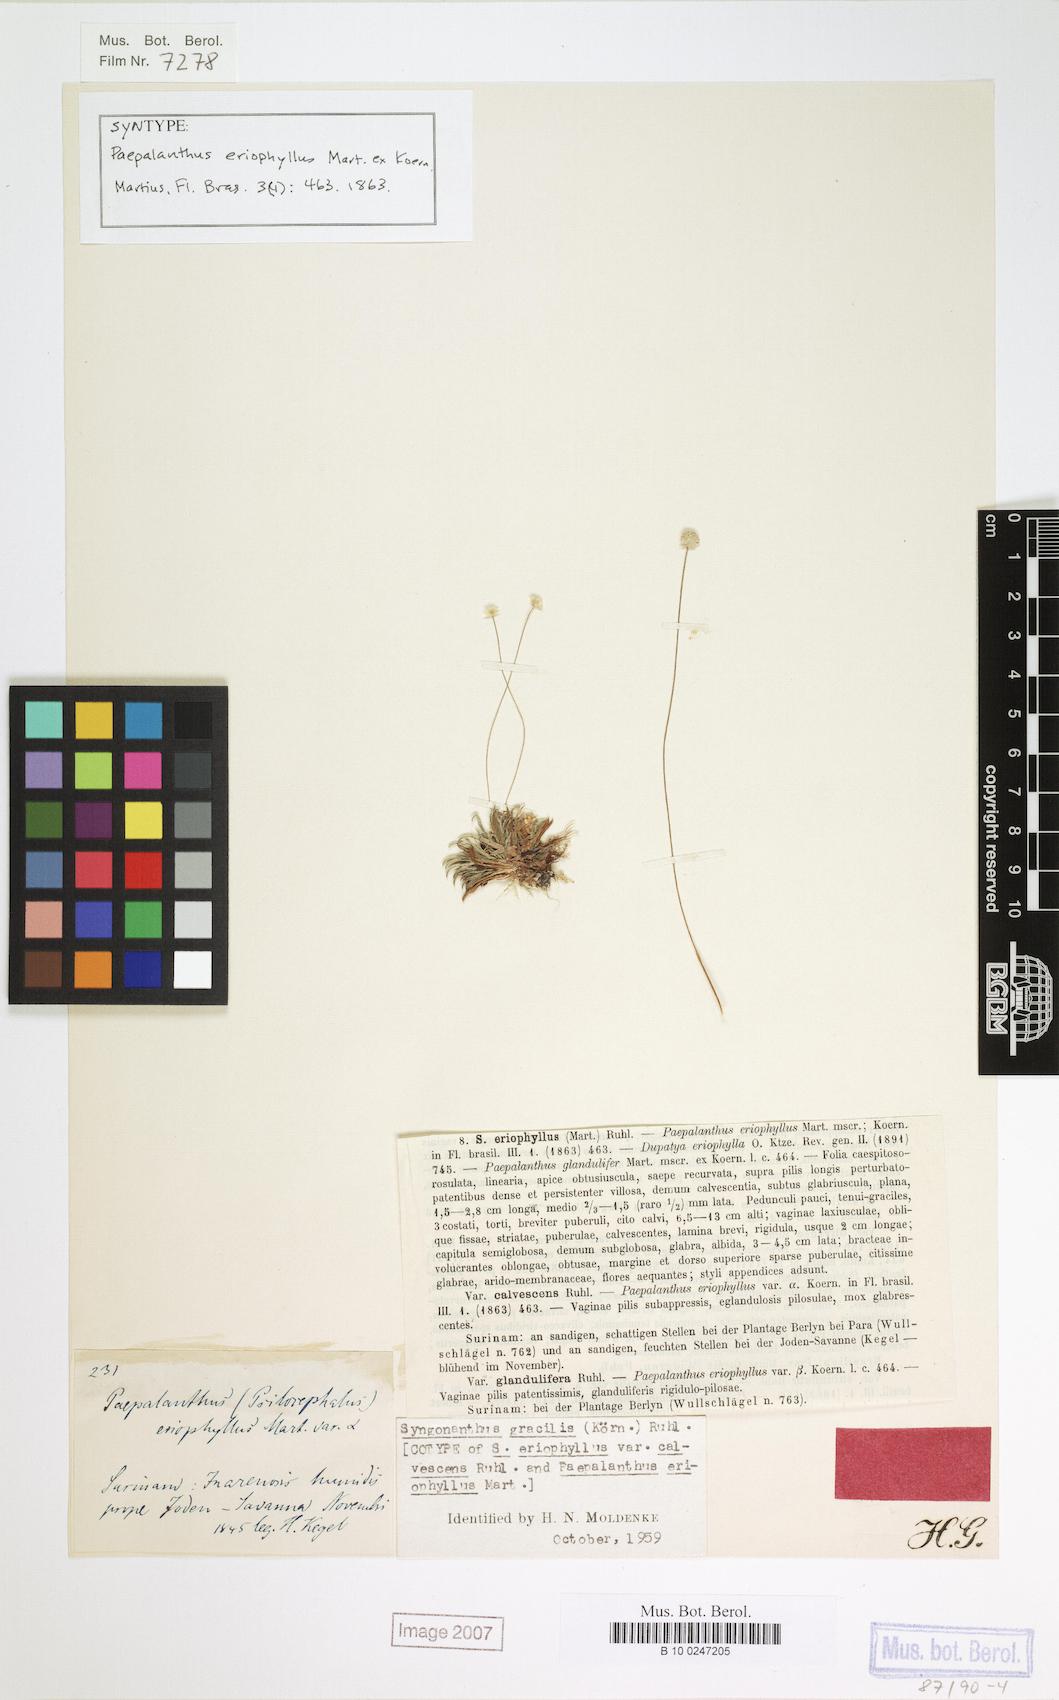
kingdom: Plantae
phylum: Tracheophyta
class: Liliopsida
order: Poales
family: Eriocaulaceae
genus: Syngonanthus
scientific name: Syngonanthus simplex
